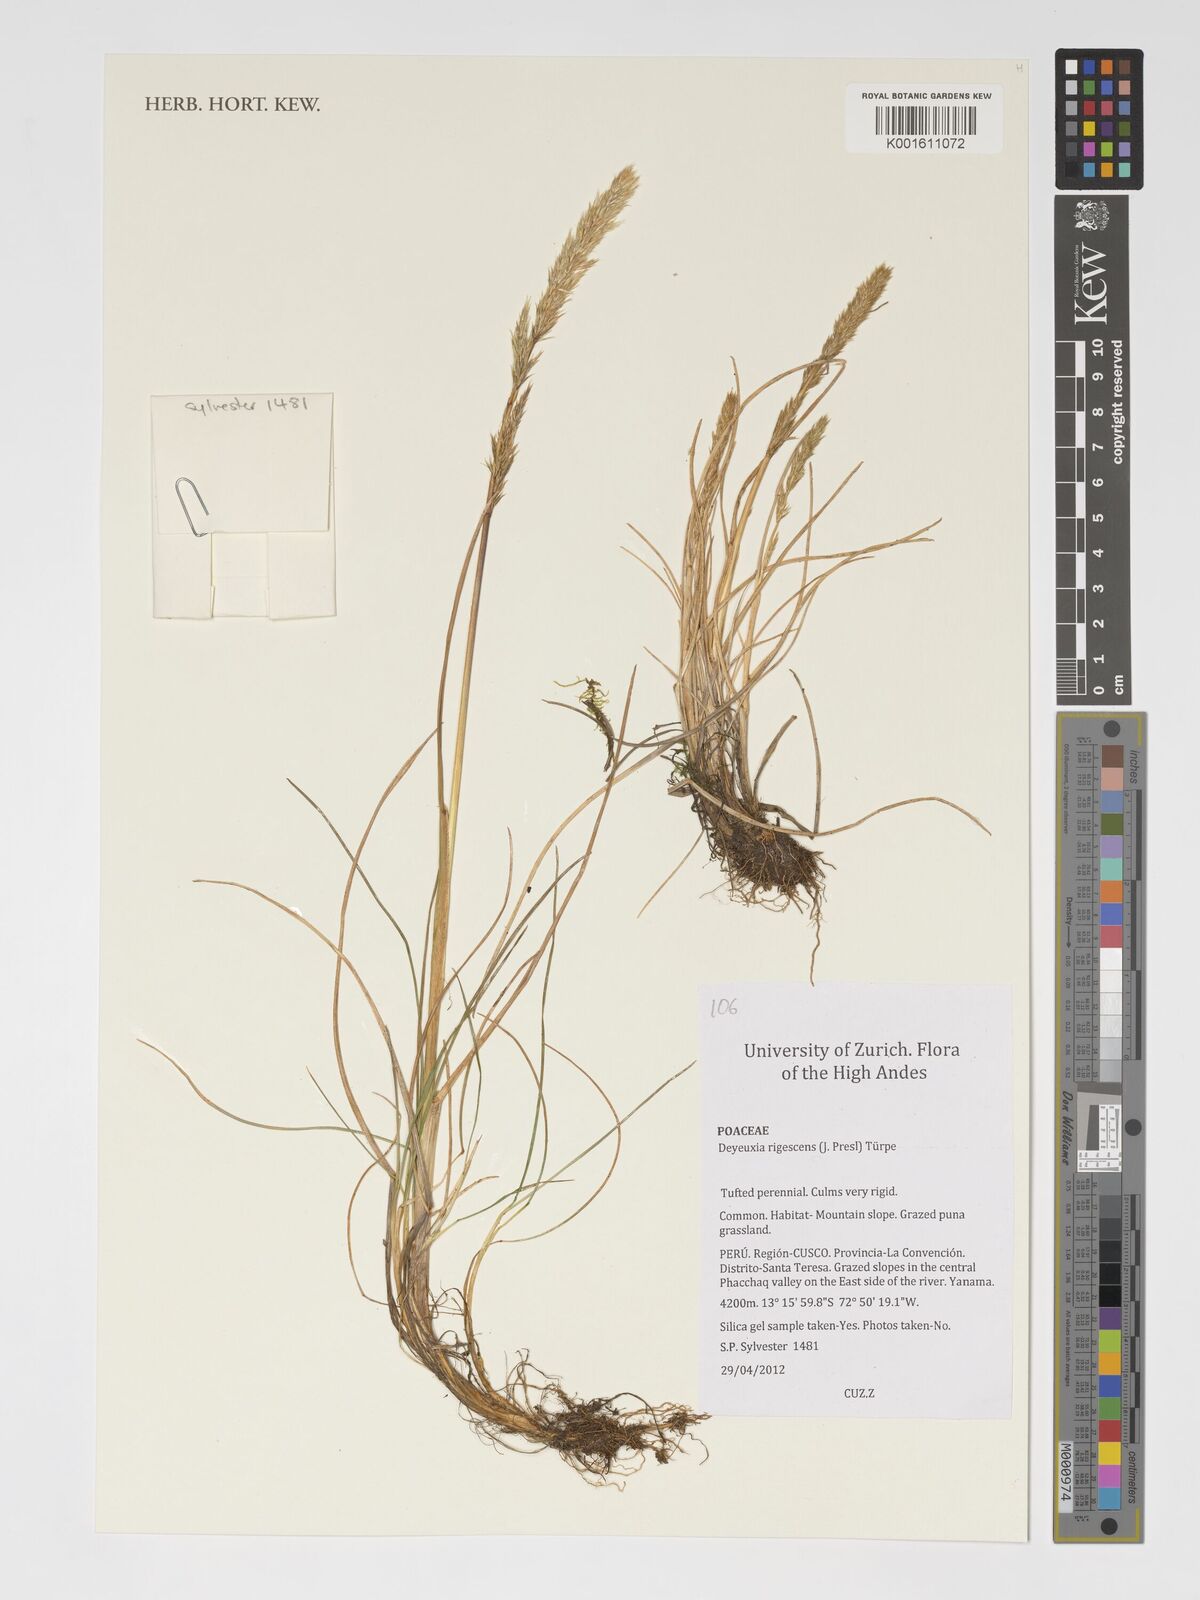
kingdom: Plantae
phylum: Tracheophyta
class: Liliopsida
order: Poales
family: Poaceae
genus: Cinnagrostis
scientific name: Cinnagrostis rigescens
